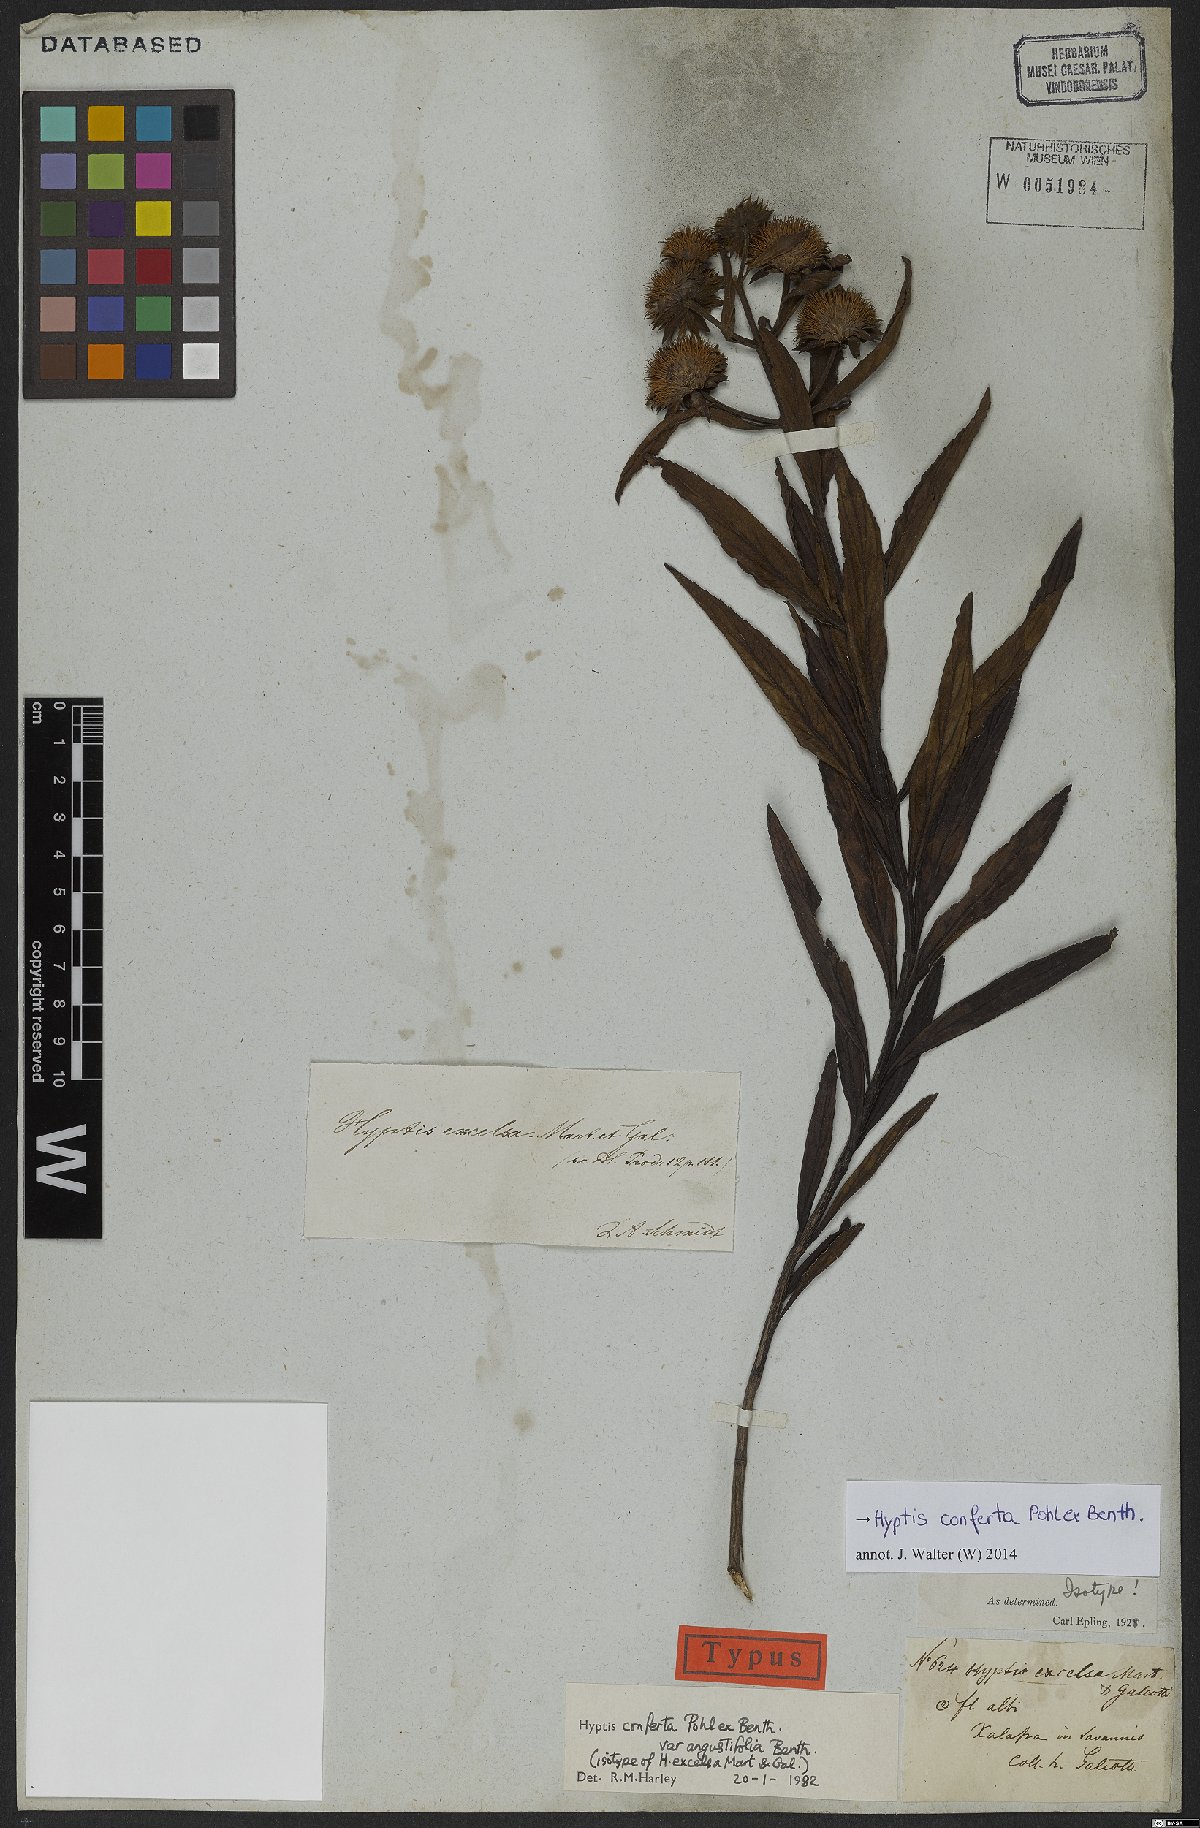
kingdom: Plantae
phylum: Tracheophyta
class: Magnoliopsida
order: Lamiales
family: Lamiaceae
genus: Hyptis
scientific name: Hyptis conferta
